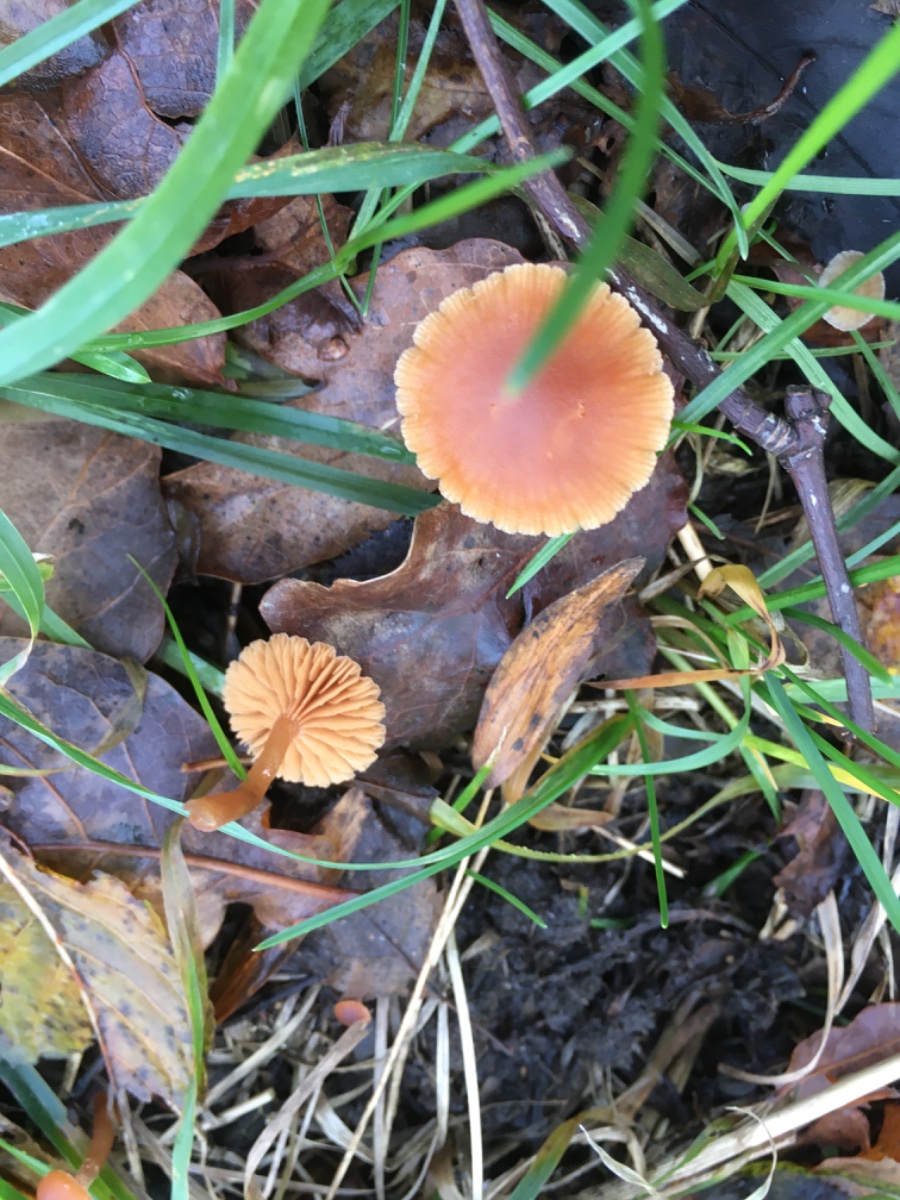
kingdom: Fungi
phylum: Basidiomycota
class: Agaricomycetes
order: Agaricales
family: Tubariaceae
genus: Tubaria
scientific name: Tubaria furfuracea
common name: kliddet fnughat
